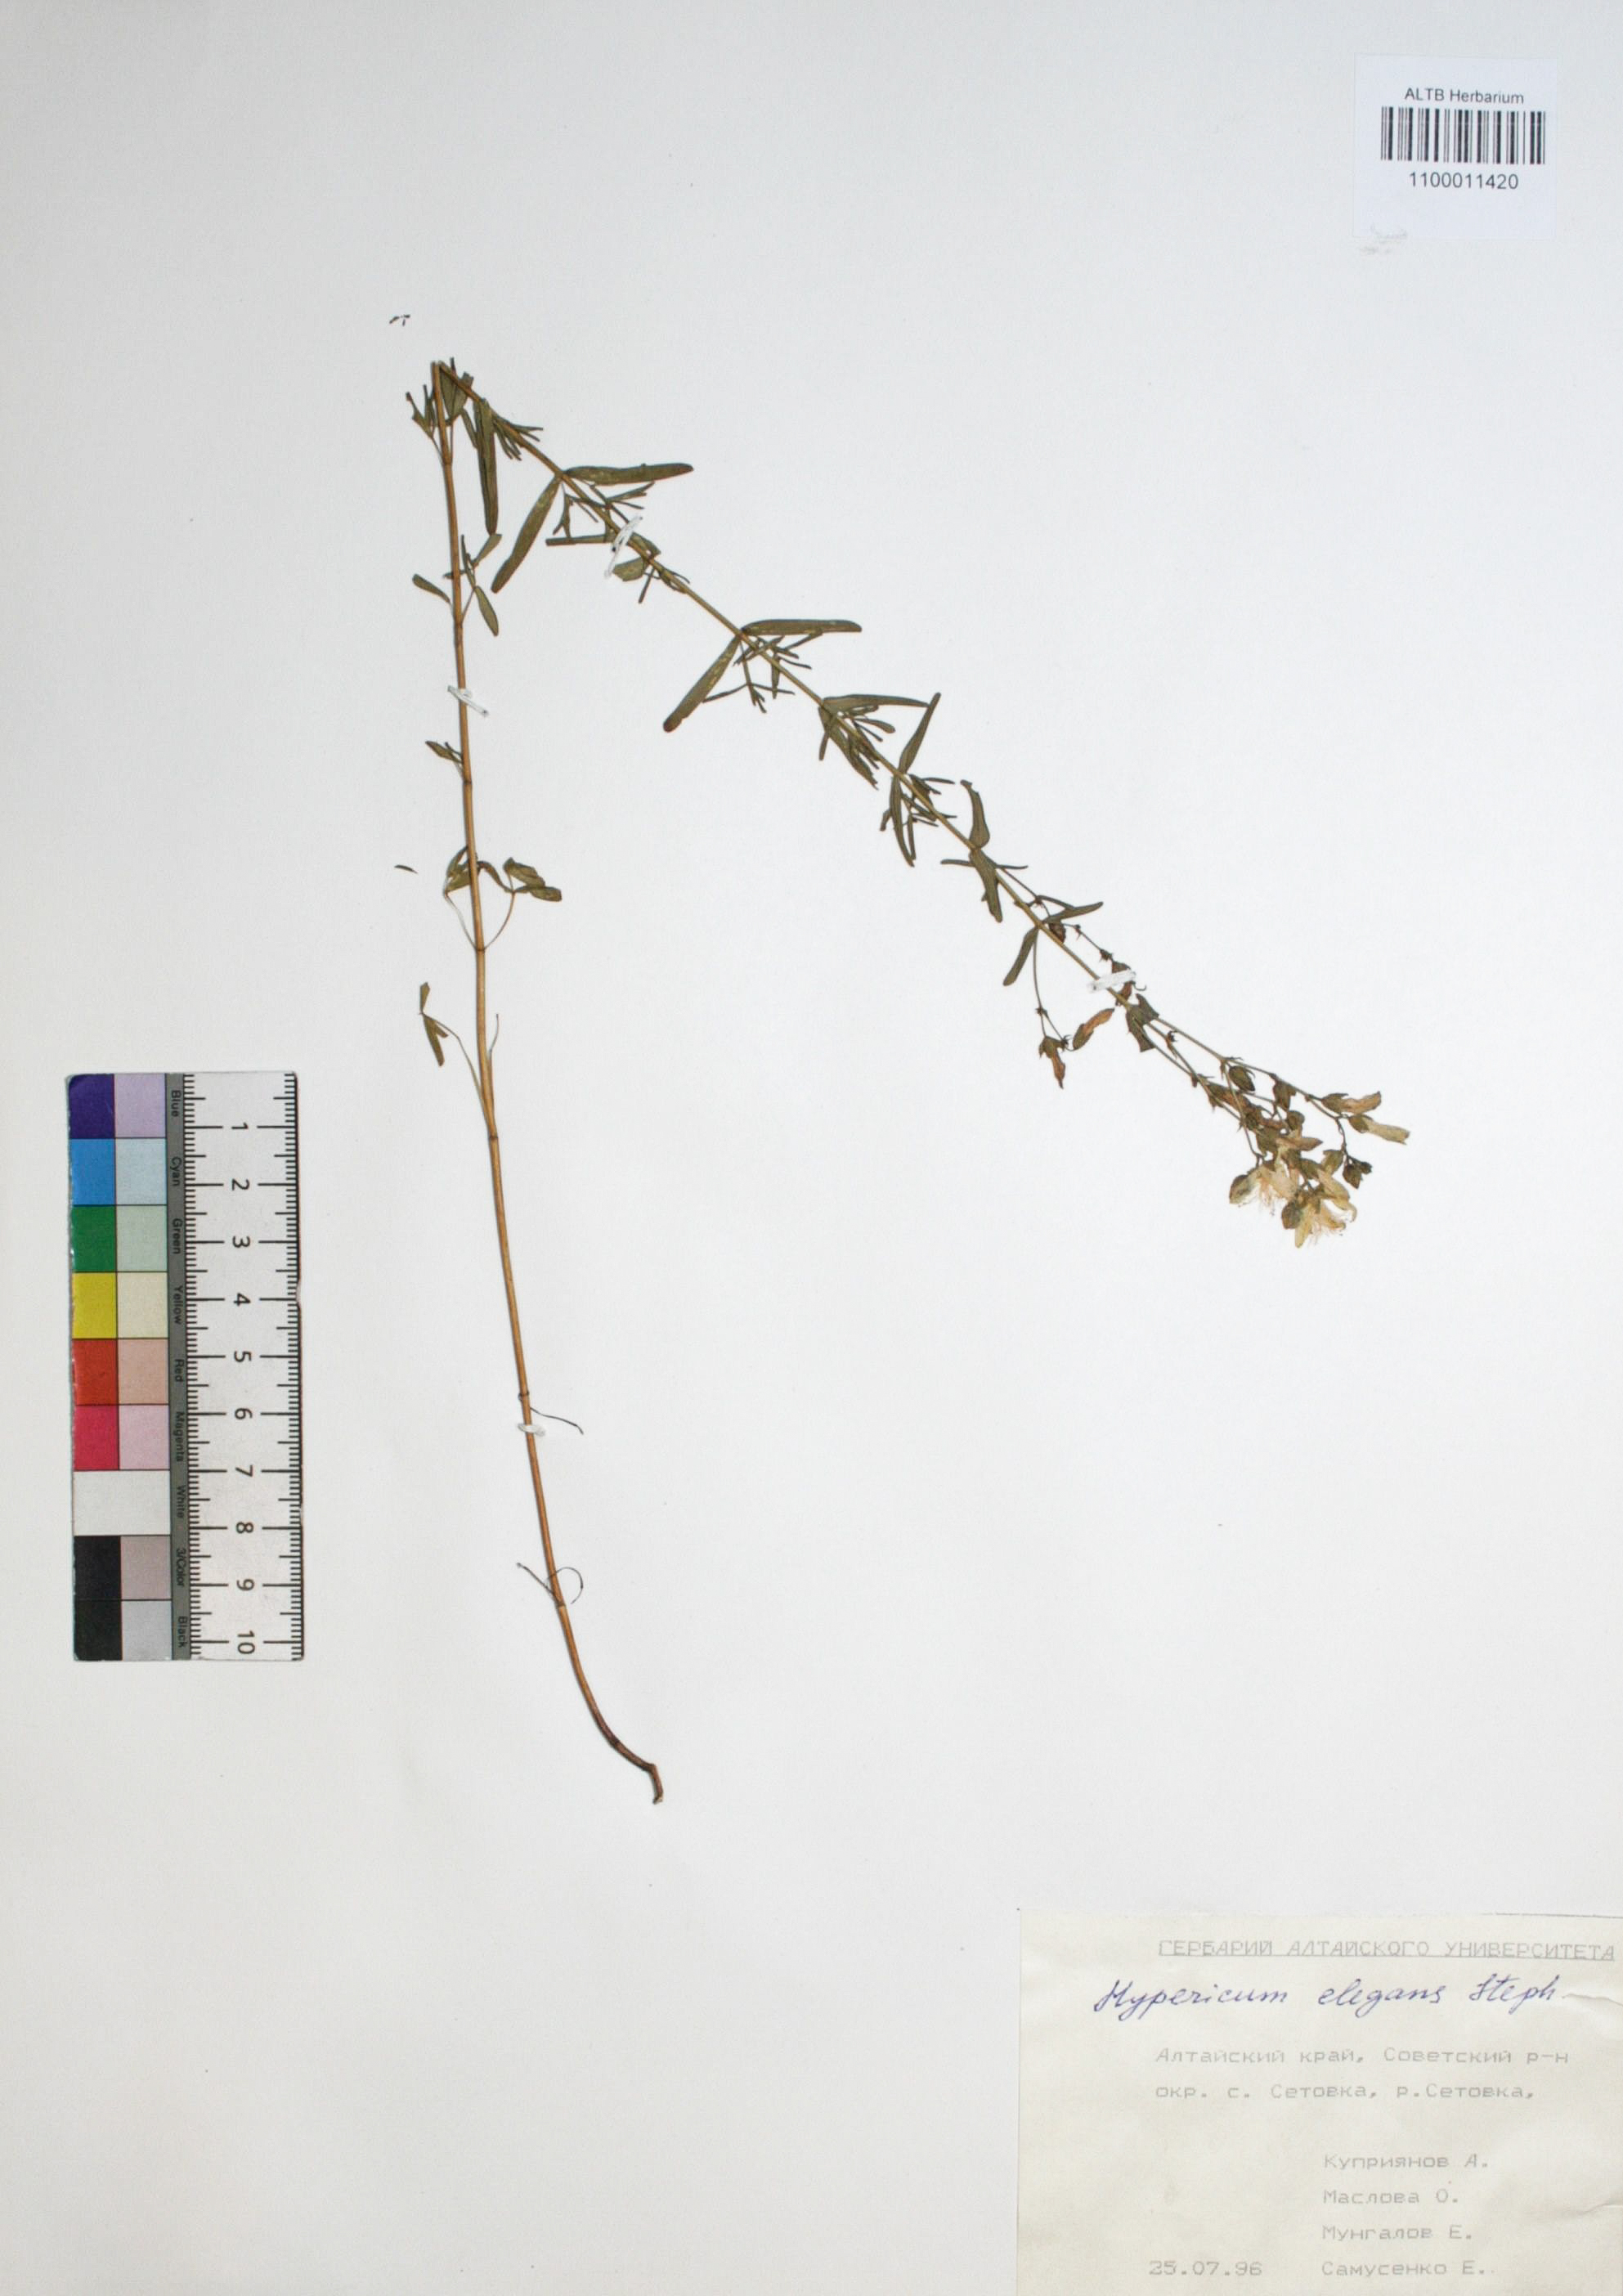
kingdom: Plantae
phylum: Tracheophyta
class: Magnoliopsida
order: Malpighiales
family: Hypericaceae
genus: Hypericum
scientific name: Hypericum elegans
